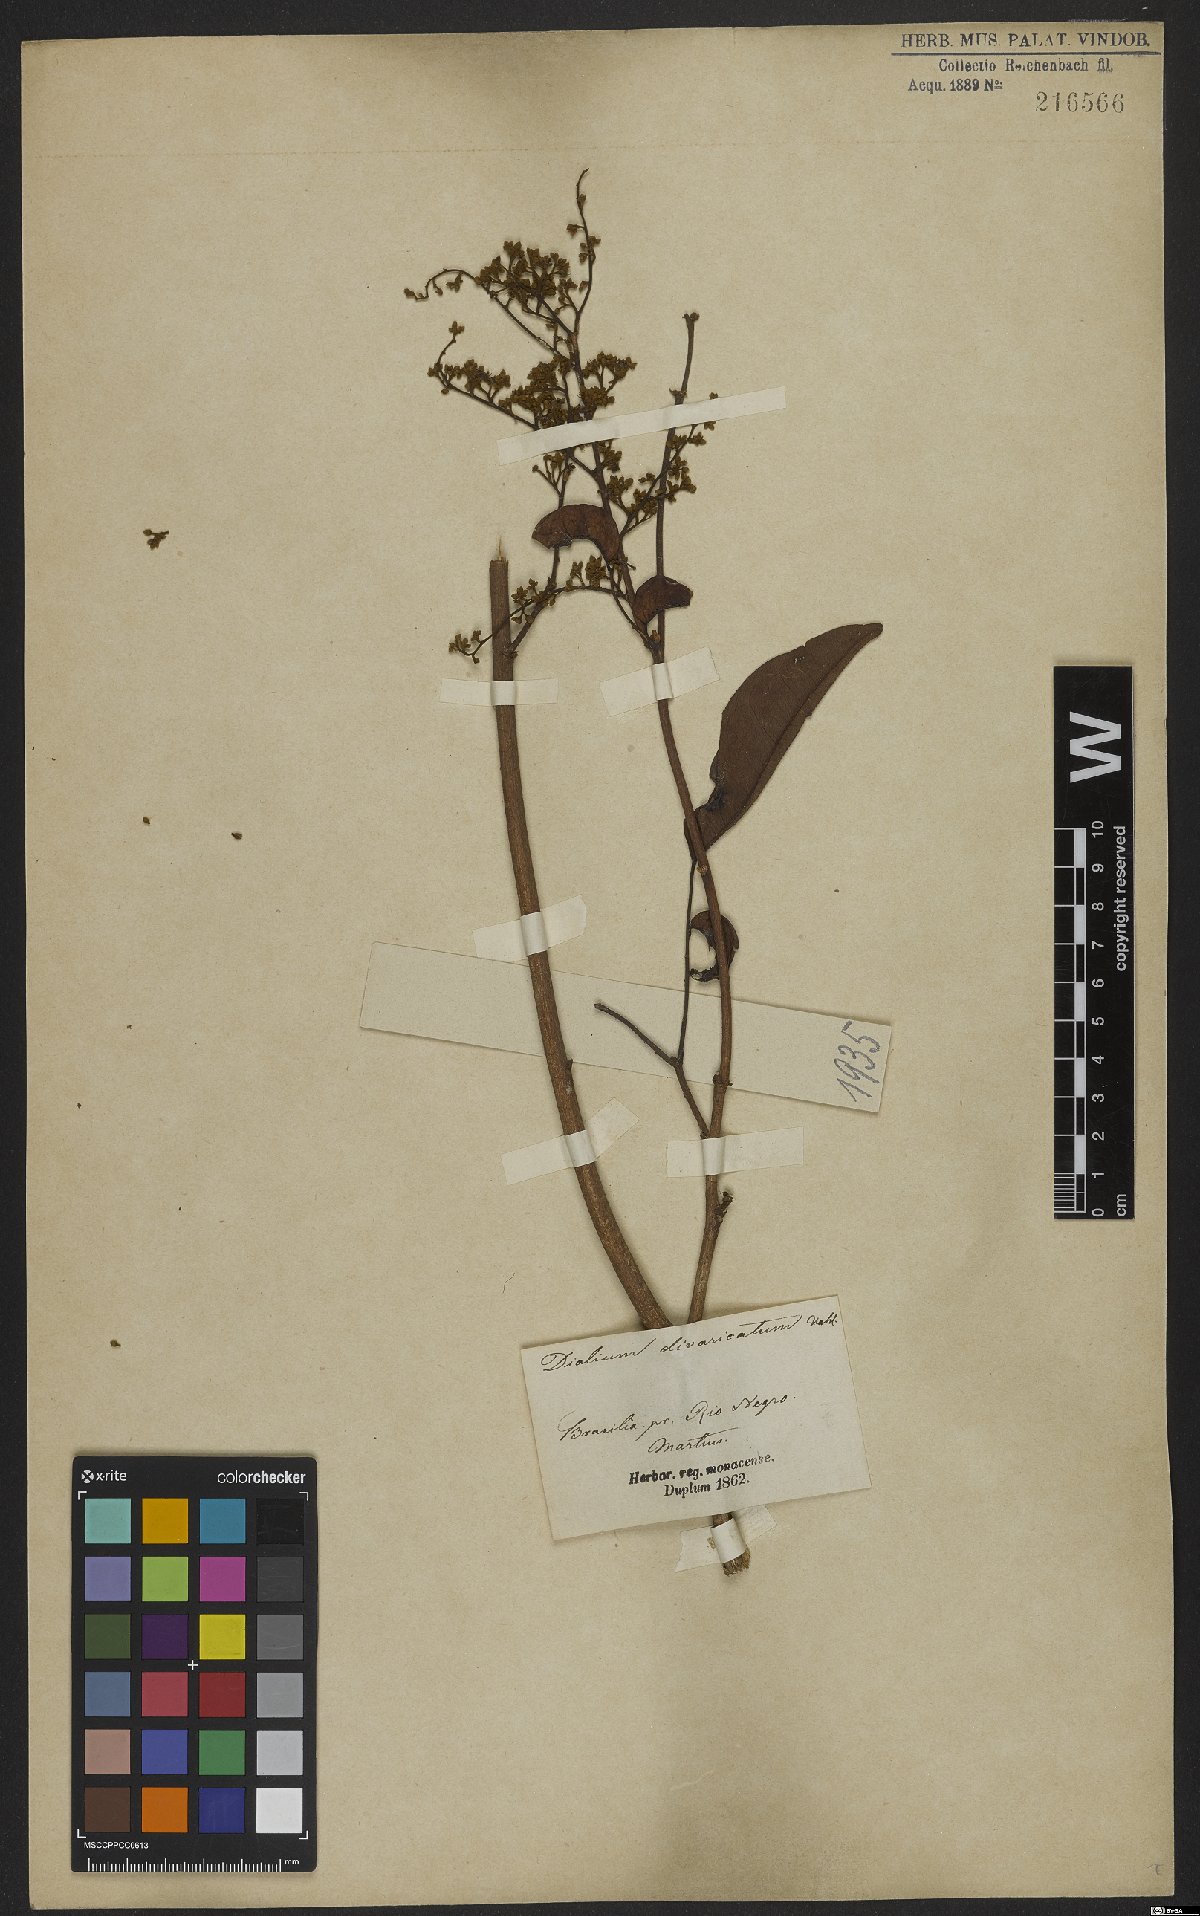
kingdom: Plantae
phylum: Tracheophyta
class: Magnoliopsida
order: Fabales
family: Fabaceae
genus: Dialium
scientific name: Dialium guianense
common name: Ironwood
